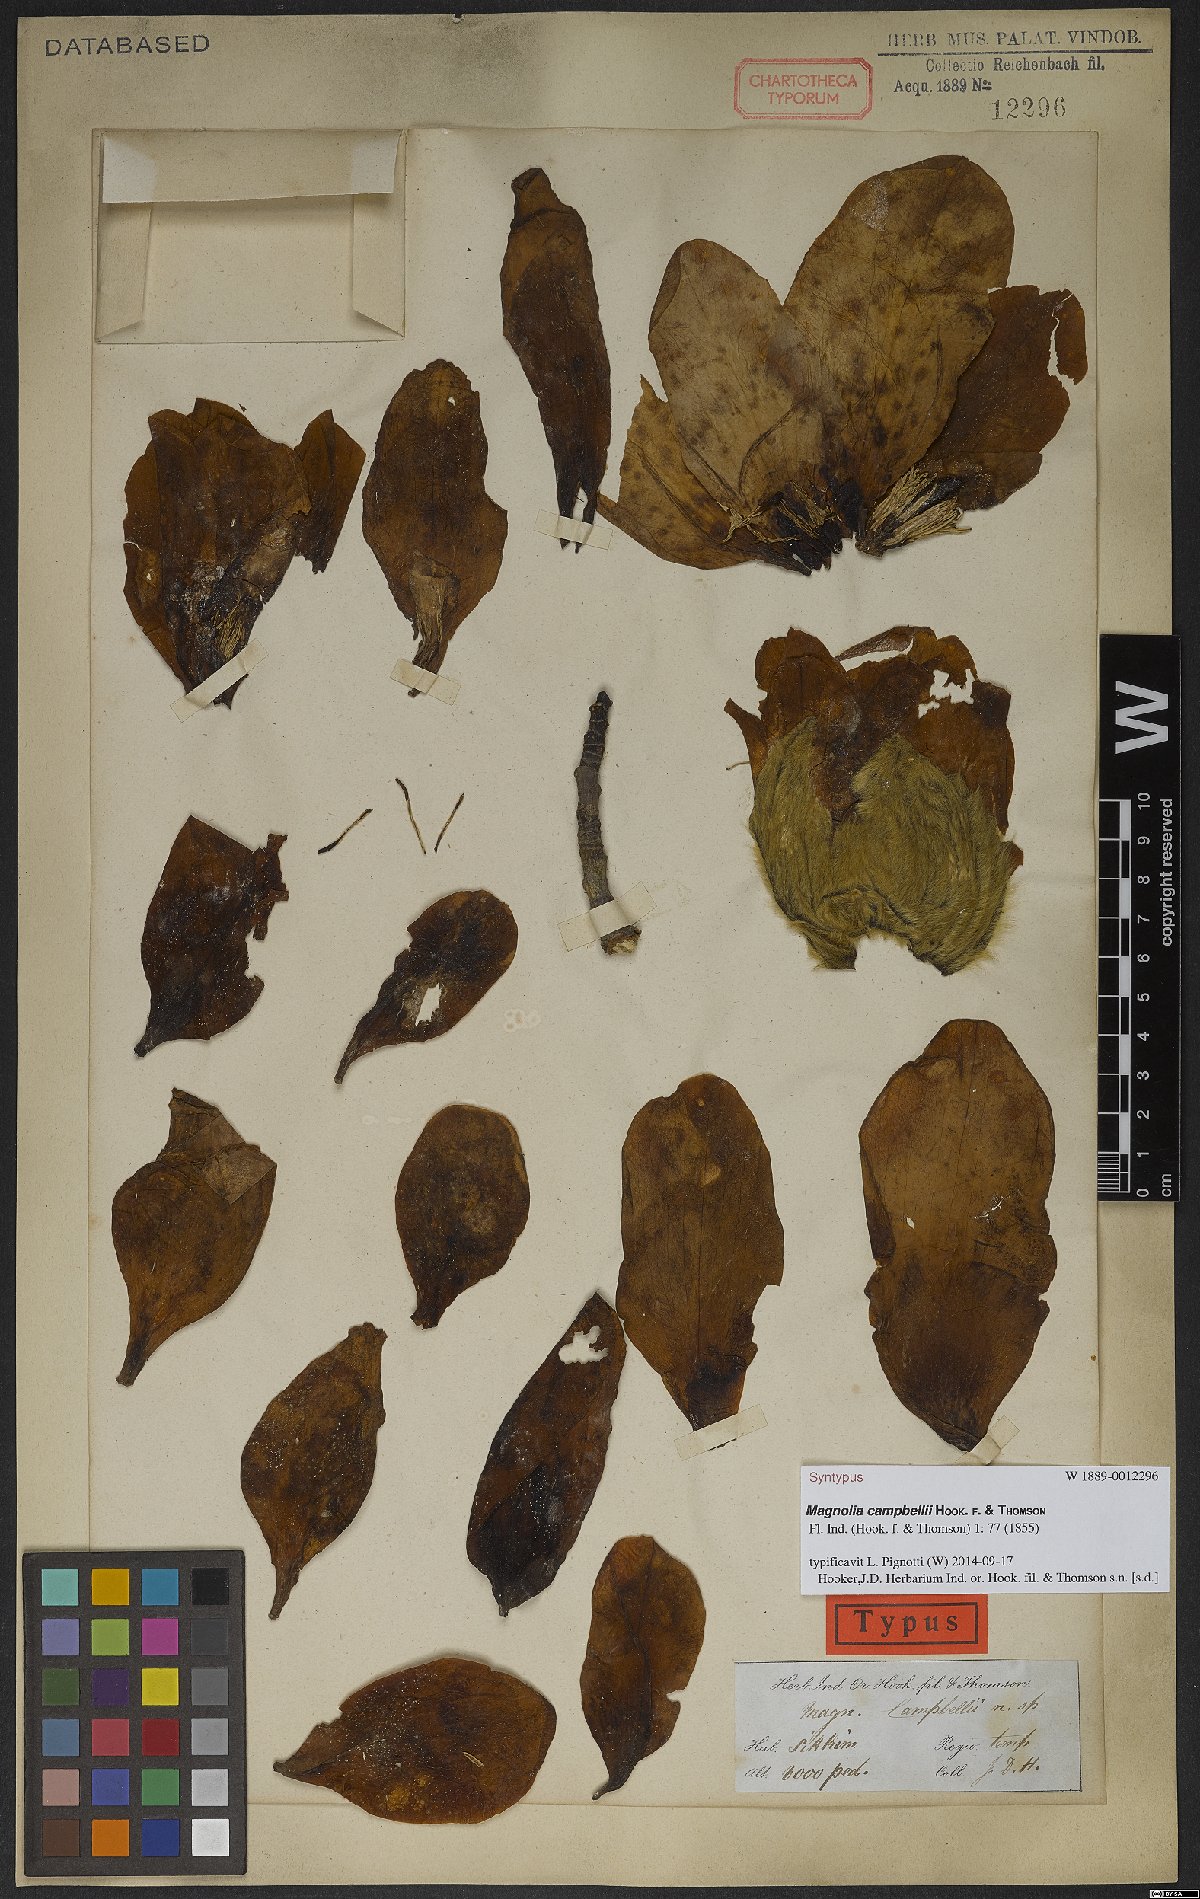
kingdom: Plantae
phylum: Tracheophyta
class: Magnoliopsida
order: Magnoliales
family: Magnoliaceae
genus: Magnolia
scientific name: Magnolia campbellii
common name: Campbell's magnolia
